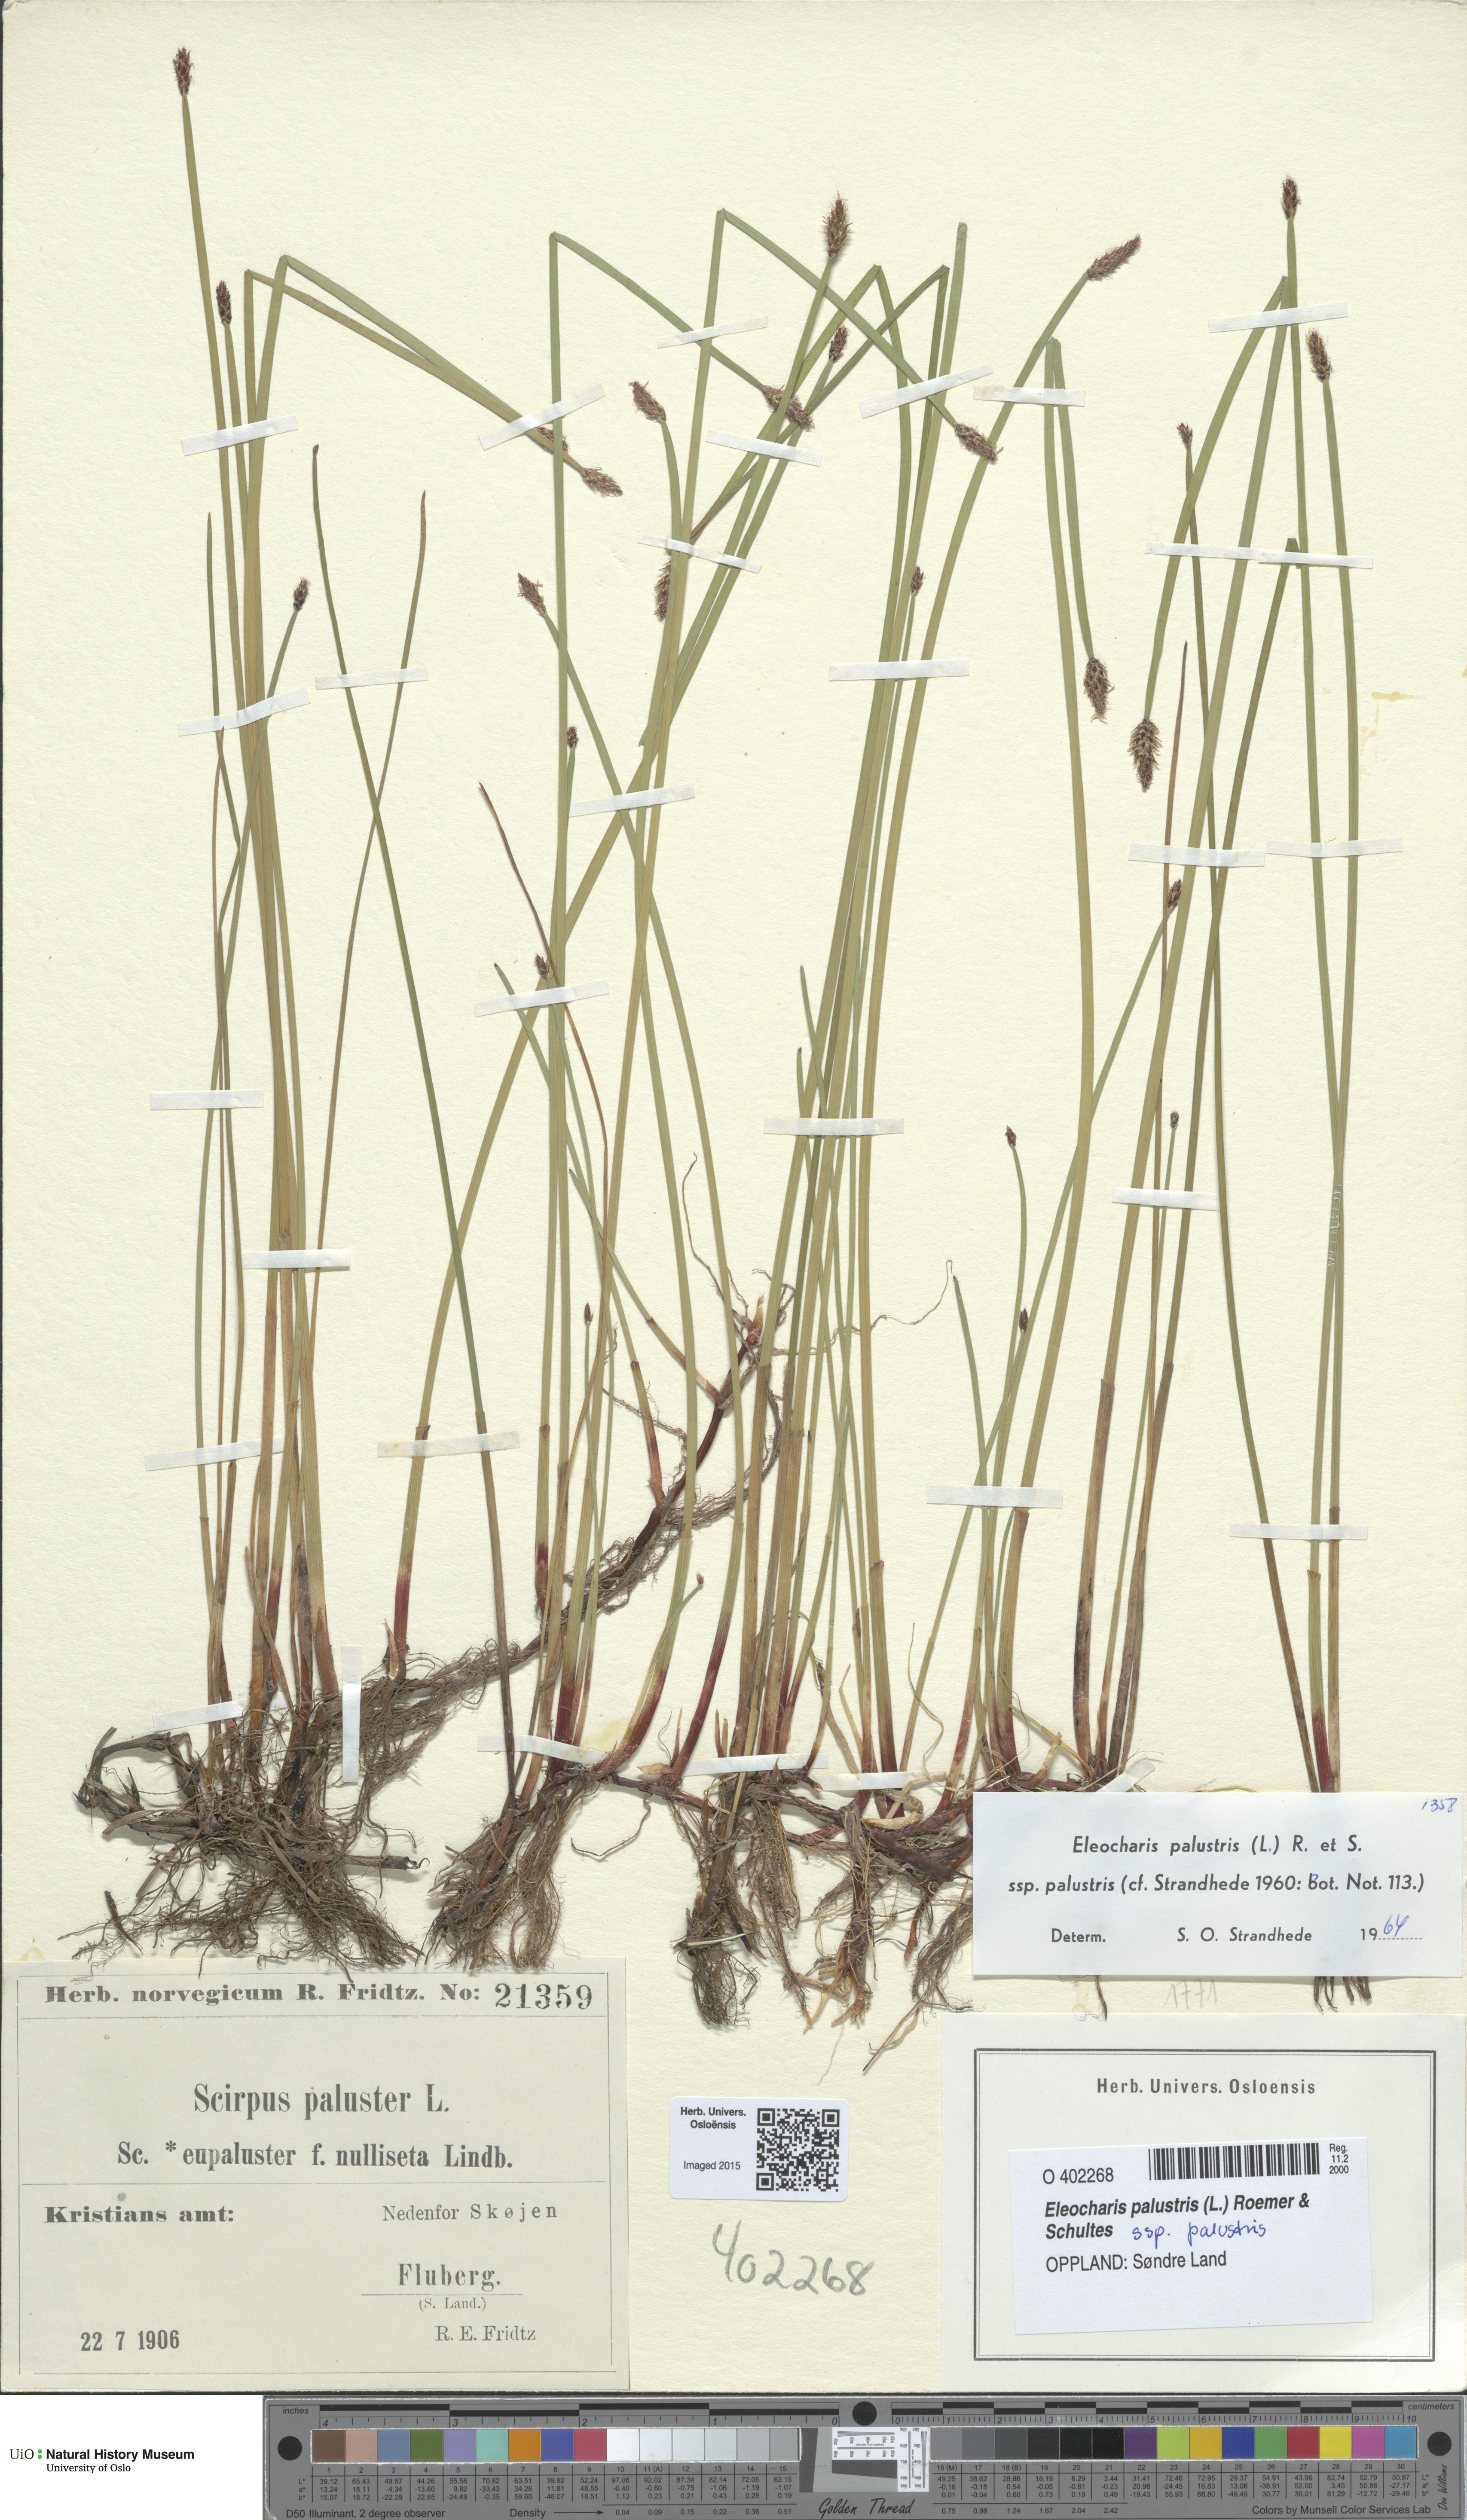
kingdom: Plantae
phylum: Tracheophyta
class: Liliopsida
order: Poales
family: Cyperaceae
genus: Eleocharis
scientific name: Eleocharis palustris
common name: Common spike-rush
